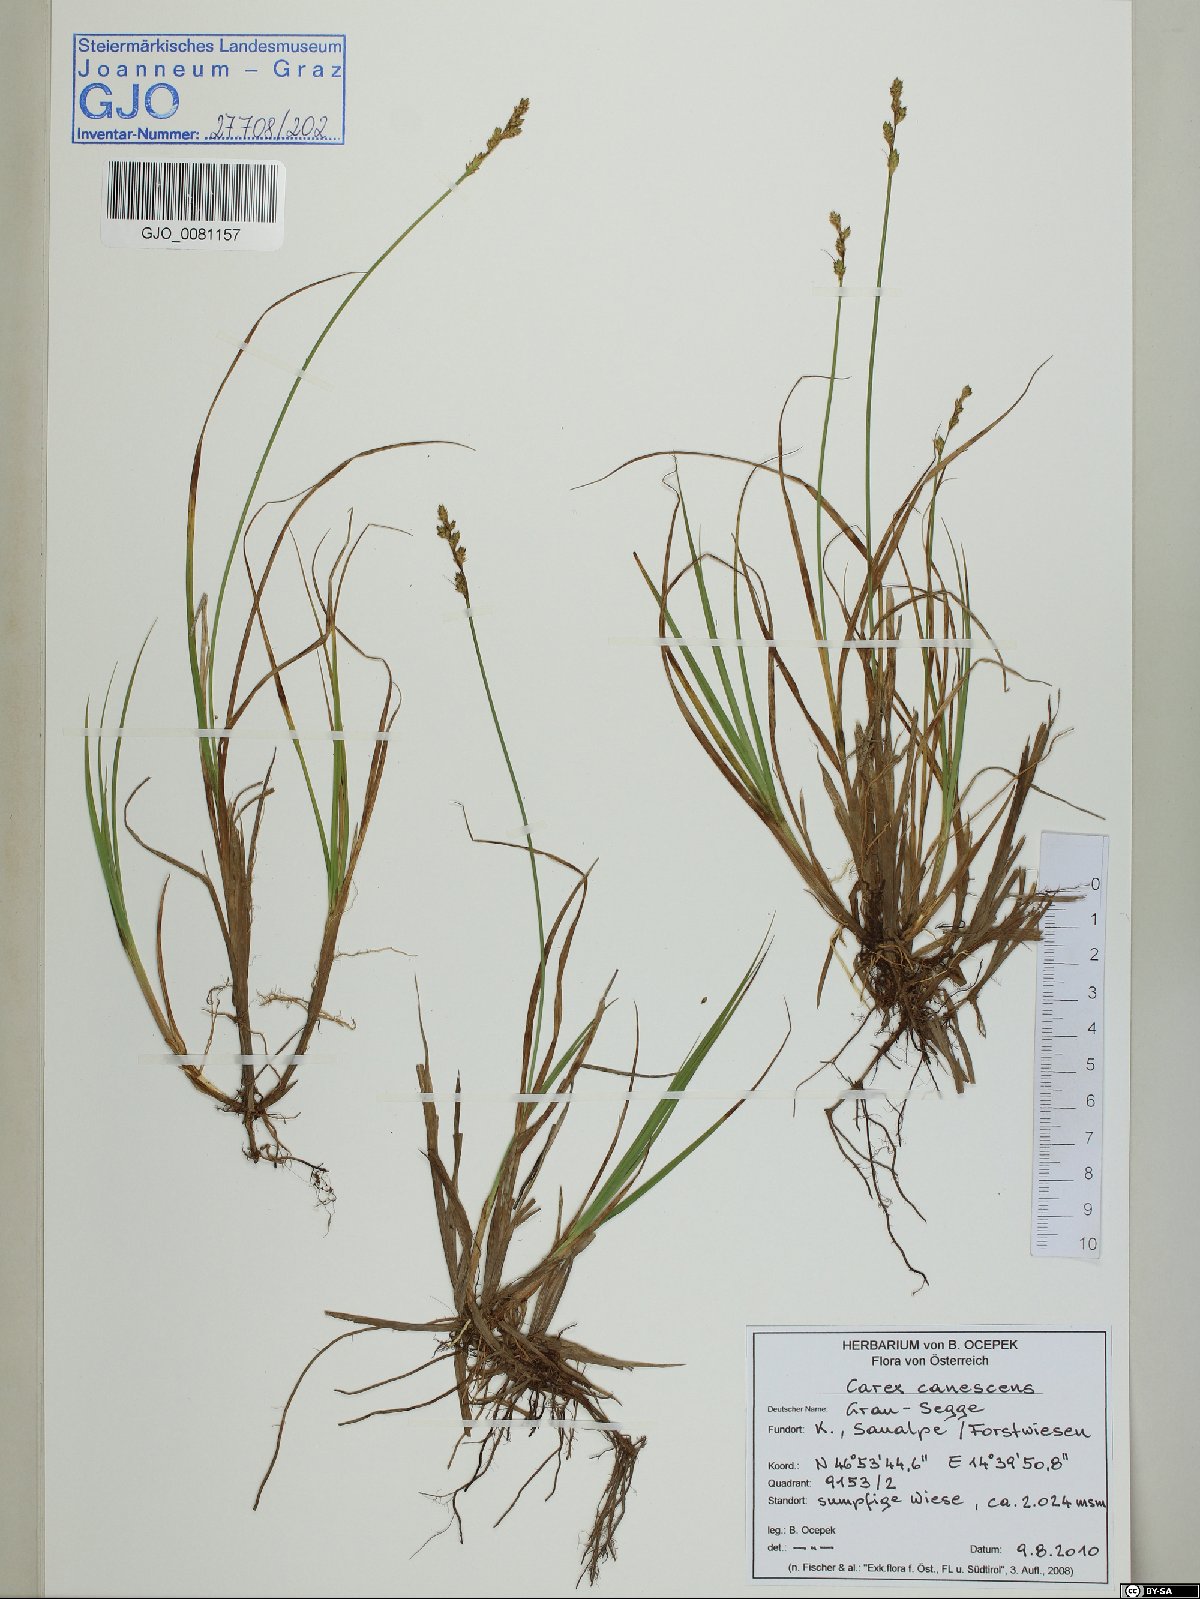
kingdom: Plantae
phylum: Tracheophyta
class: Liliopsida
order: Poales
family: Cyperaceae
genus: Carex
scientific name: Carex canescens
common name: White sedge
